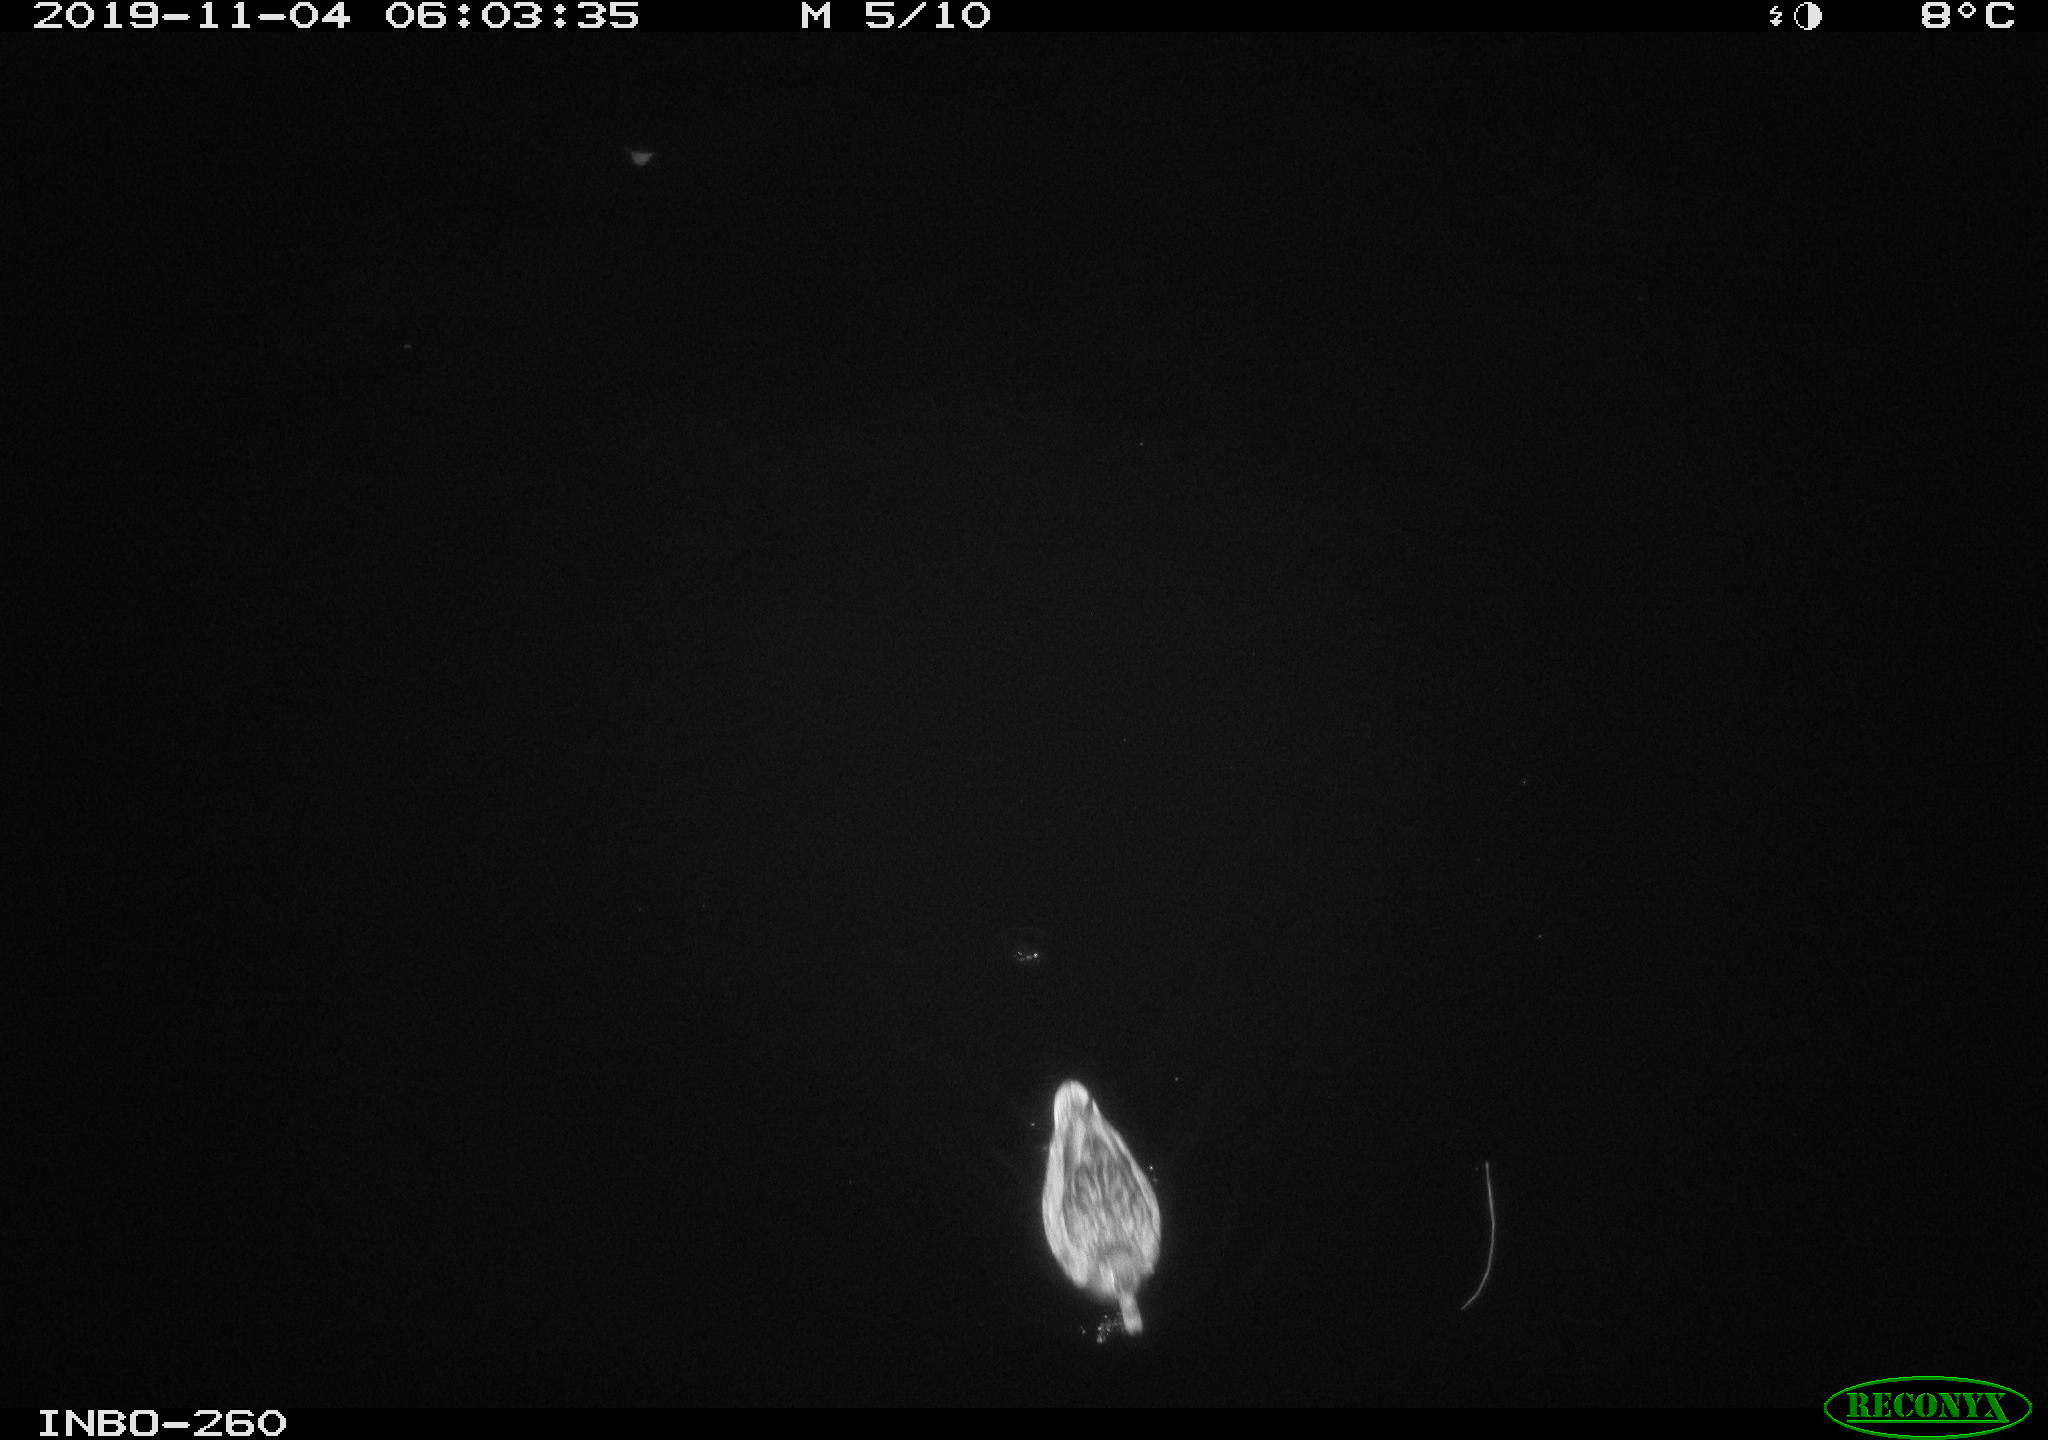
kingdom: Animalia
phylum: Chordata
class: Aves
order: Anseriformes
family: Anatidae
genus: Anas
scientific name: Anas platyrhynchos
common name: Mallard
